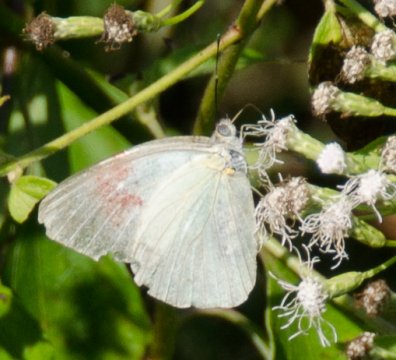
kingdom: Animalia
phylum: Arthropoda
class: Insecta
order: Lepidoptera
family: Pieridae
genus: Glutophrissa
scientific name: Glutophrissa drusilla
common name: Florida White
